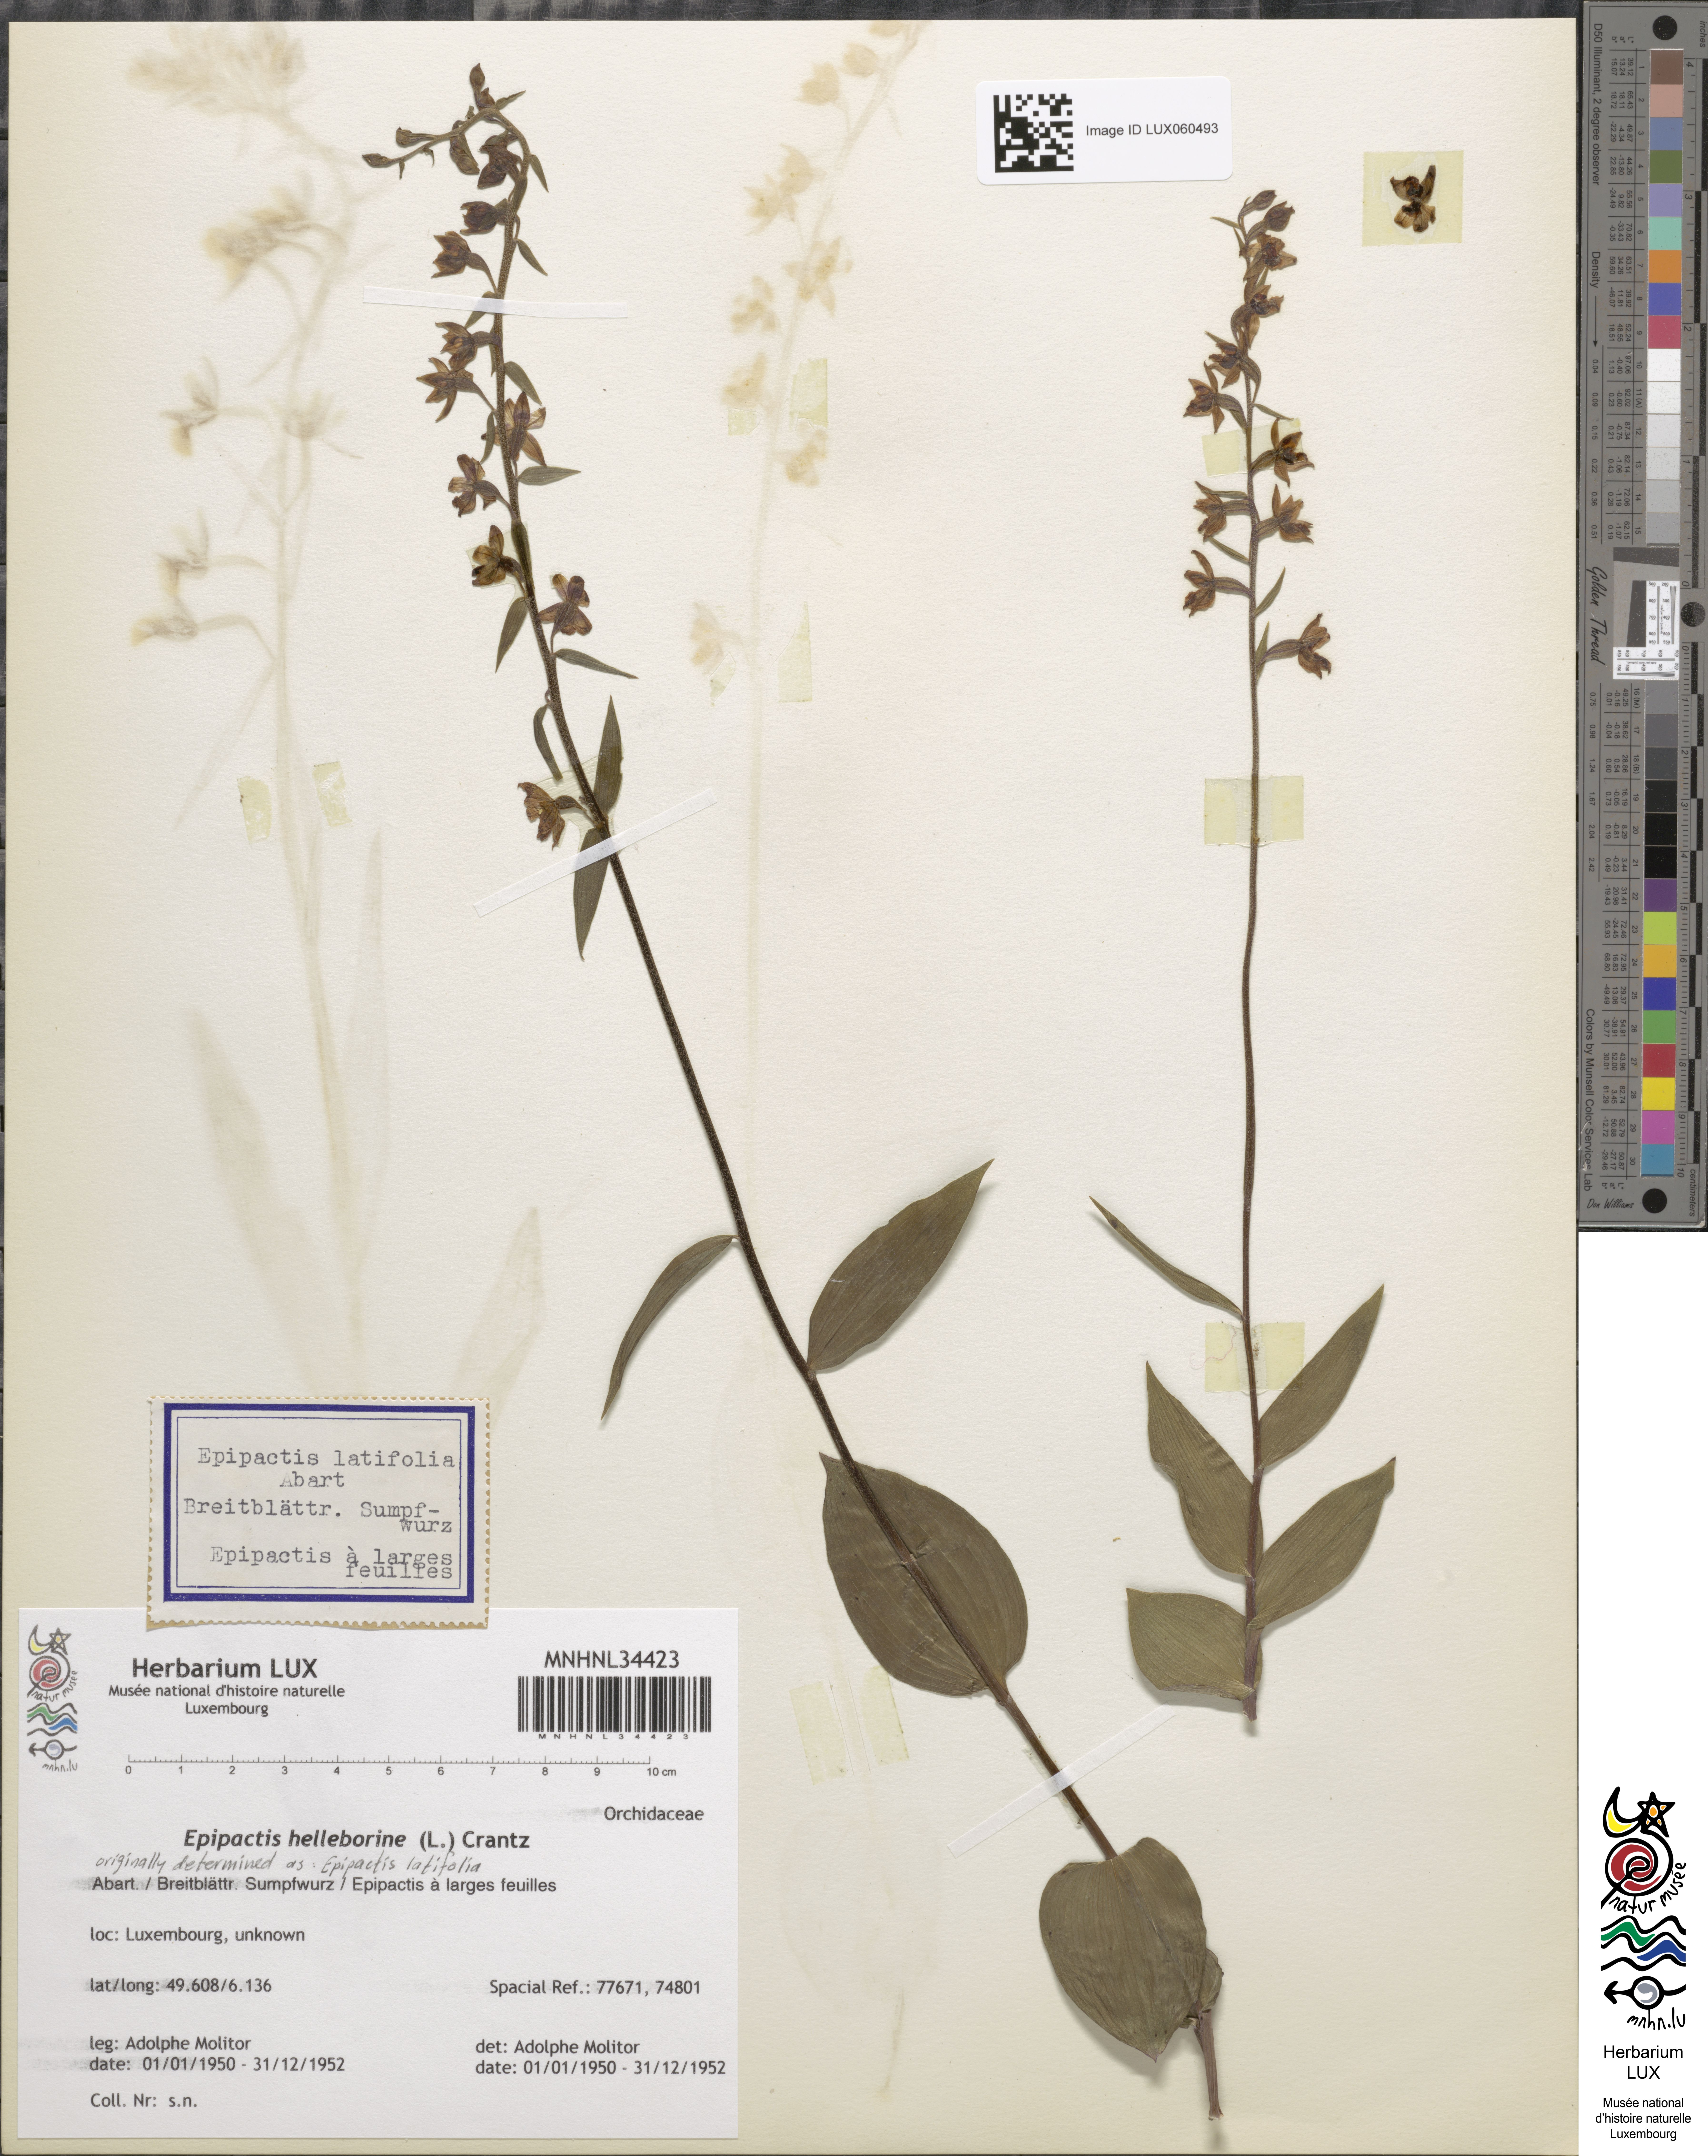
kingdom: Plantae
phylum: Tracheophyta
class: Liliopsida
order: Asparagales
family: Orchidaceae
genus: Epipactis
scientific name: Epipactis helleborine
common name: Broad-leaved helleborine
